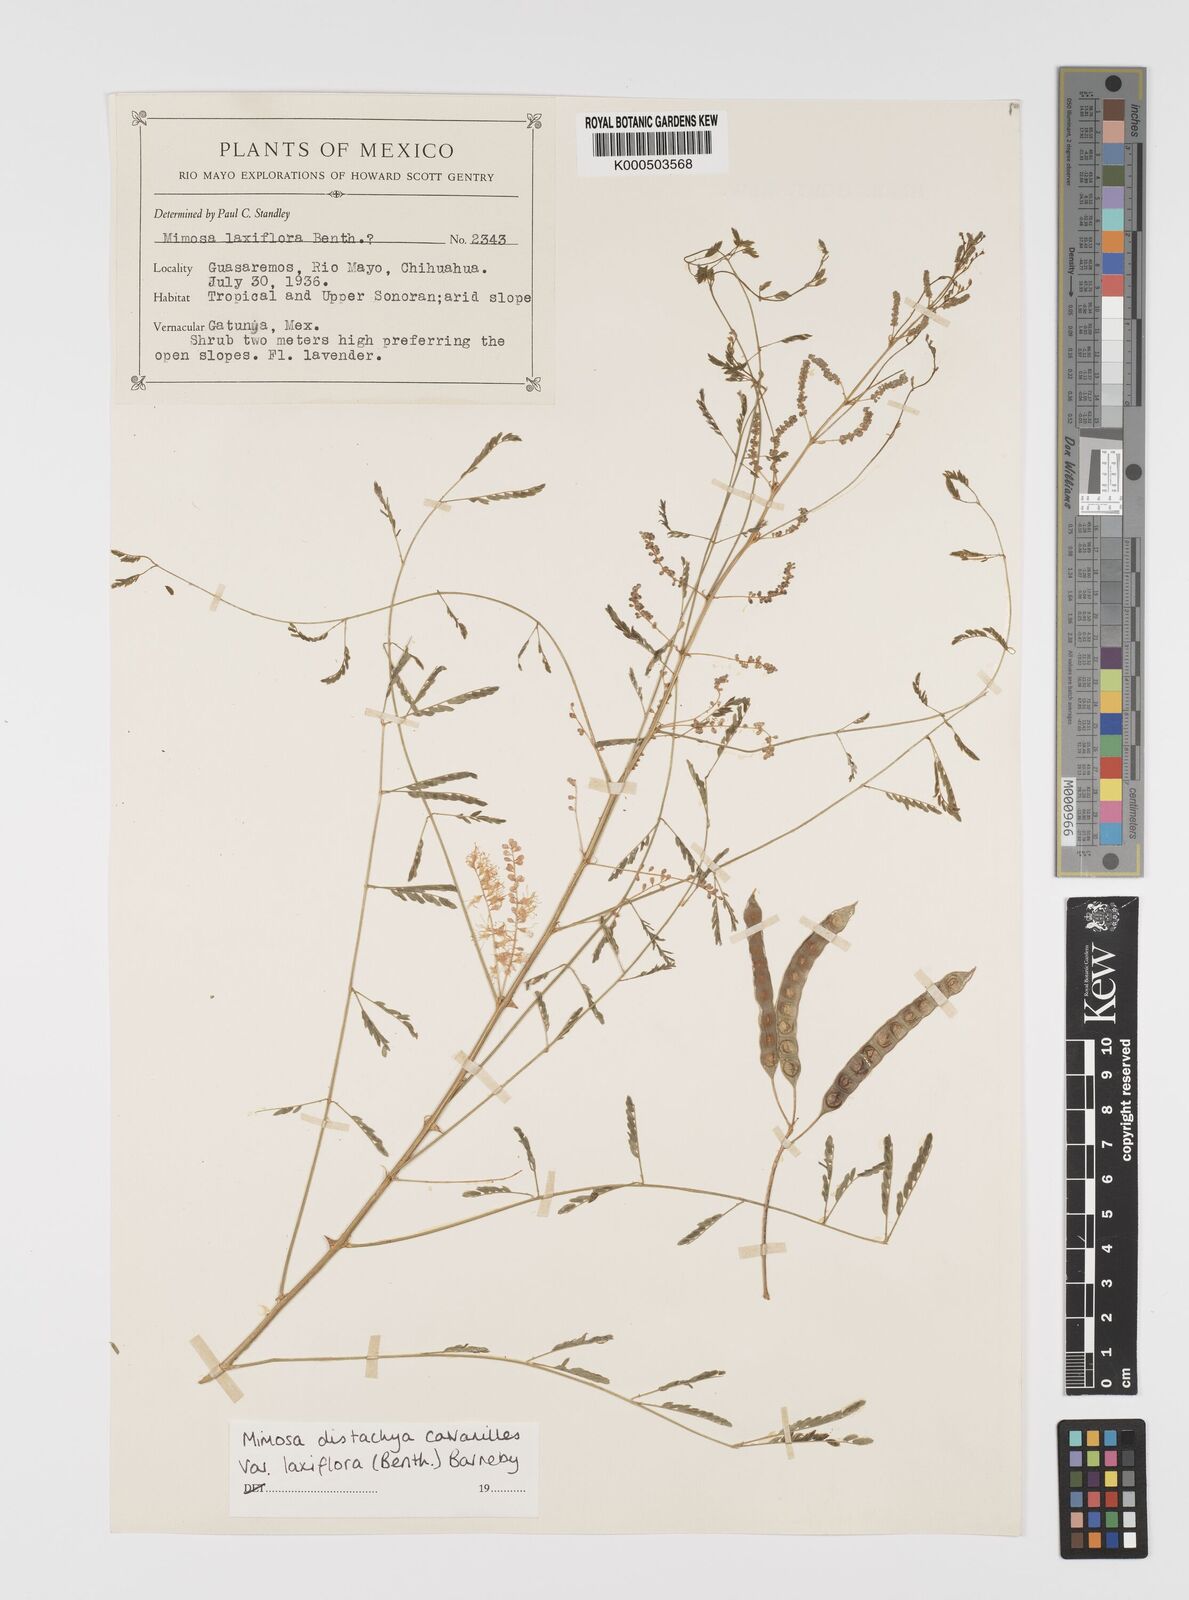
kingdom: Plantae
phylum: Tracheophyta
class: Magnoliopsida
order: Fabales
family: Fabaceae
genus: Mimosa
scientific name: Mimosa distachya
